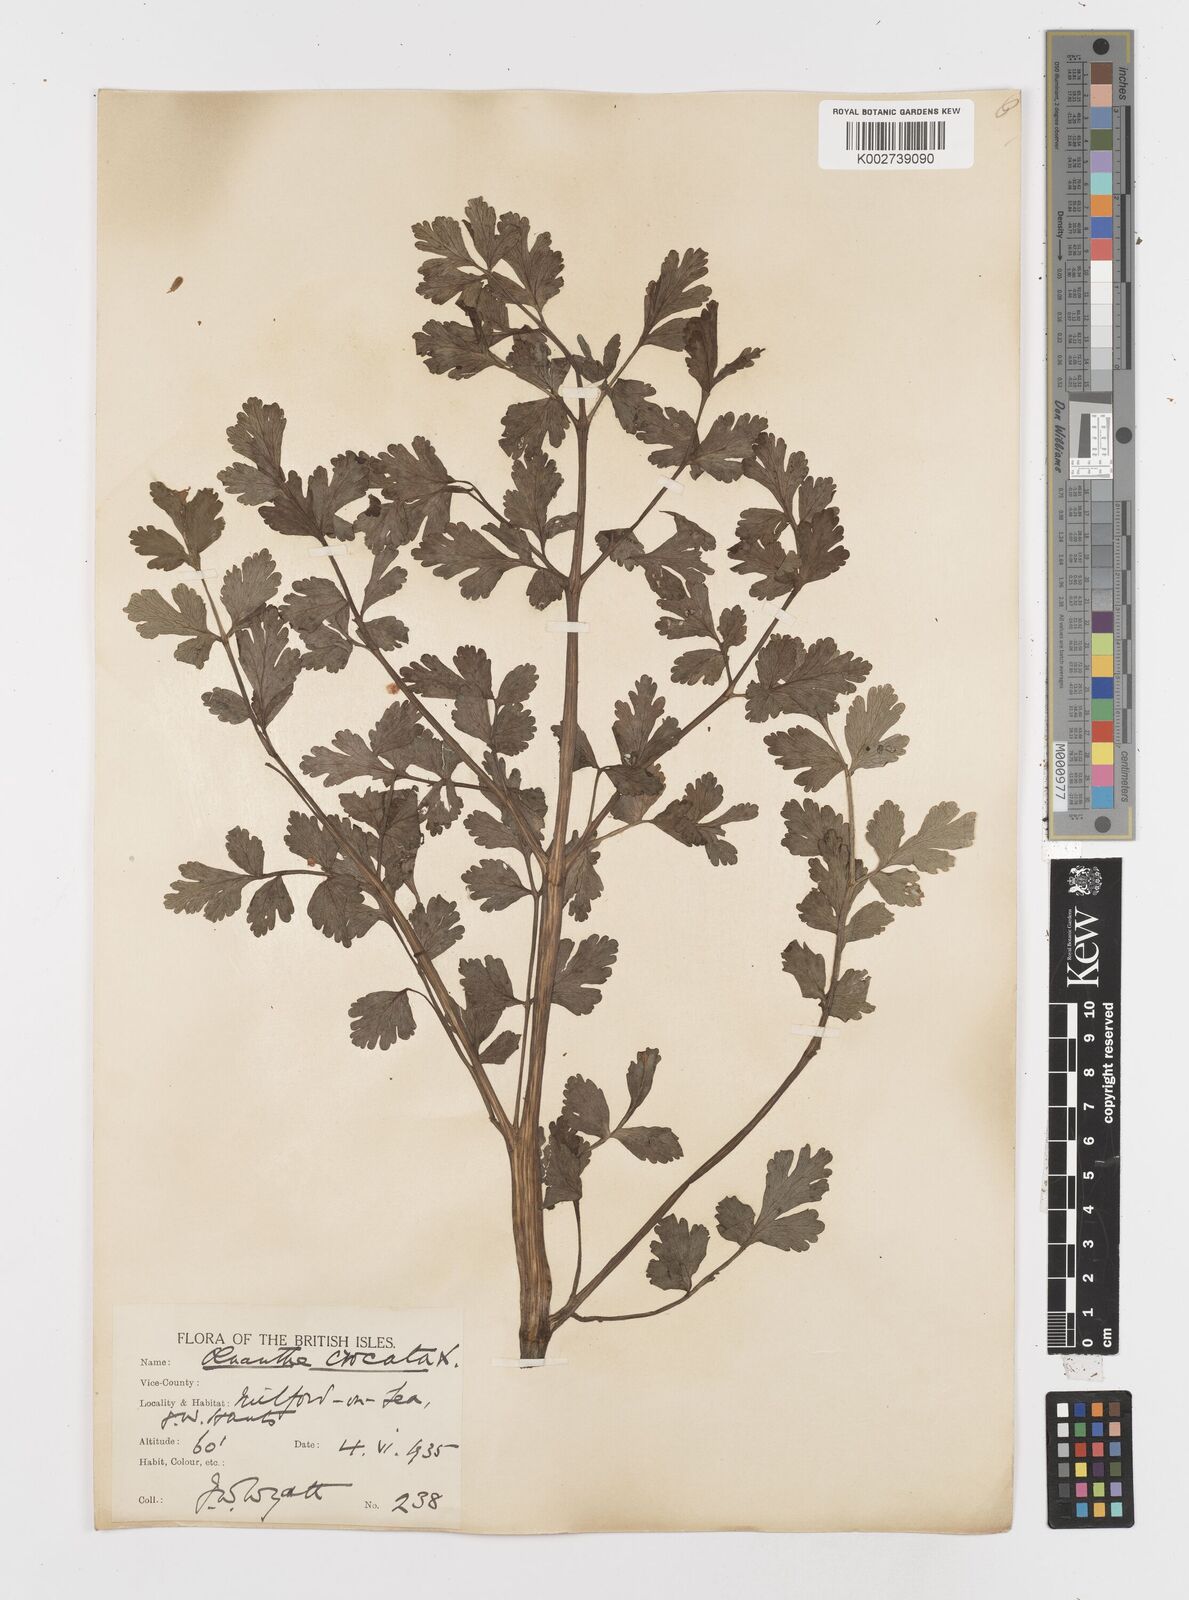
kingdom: Plantae
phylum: Tracheophyta
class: Magnoliopsida
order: Apiales
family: Apiaceae
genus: Oenanthe
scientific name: Oenanthe crocata
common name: Hemlock water-dropwort
